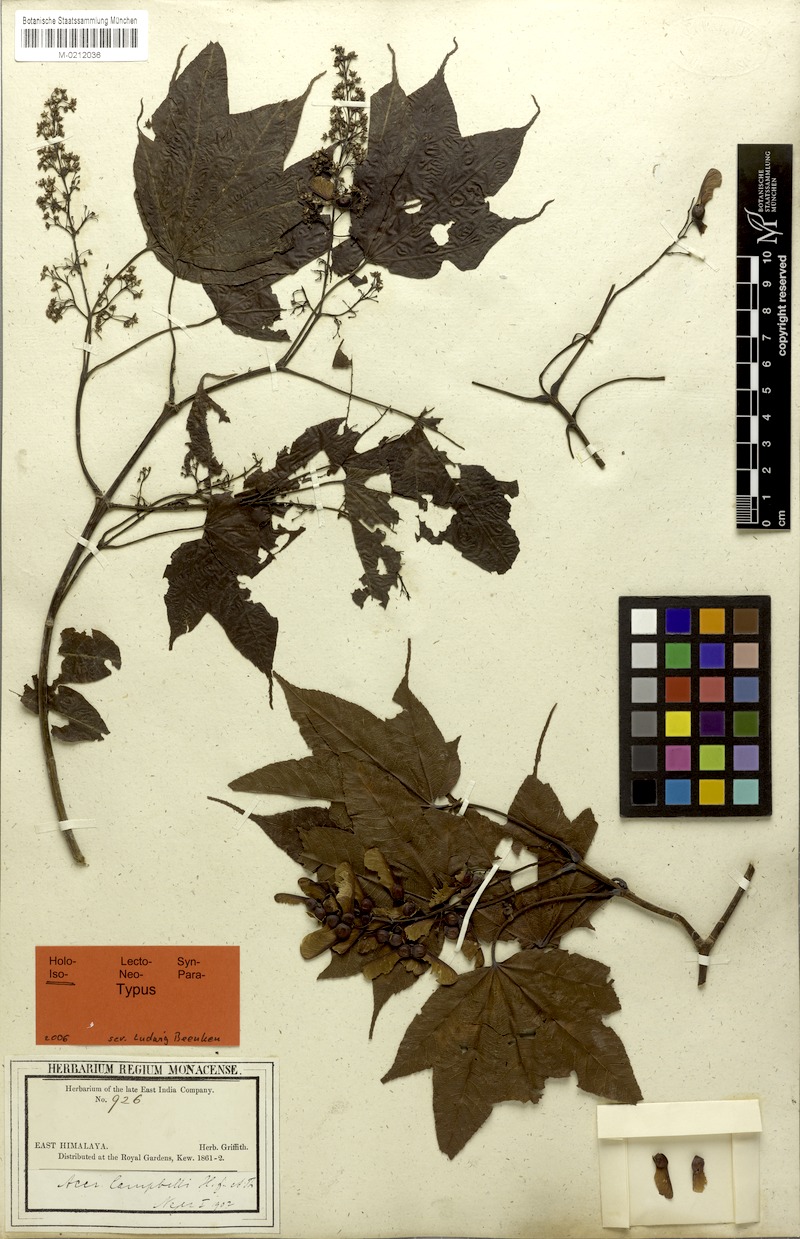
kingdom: Plantae
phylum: Tracheophyta
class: Magnoliopsida
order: Sapindales
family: Sapindaceae
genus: Acer
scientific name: Acer campbellii
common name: Campbell's maple
